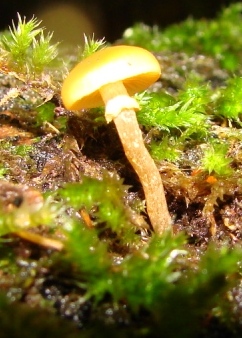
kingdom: Fungi
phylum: Basidiomycota
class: Agaricomycetes
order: Agaricales
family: Hymenogastraceae
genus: Galerina
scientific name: Galerina marginata
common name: randbæltet hjelmhat
